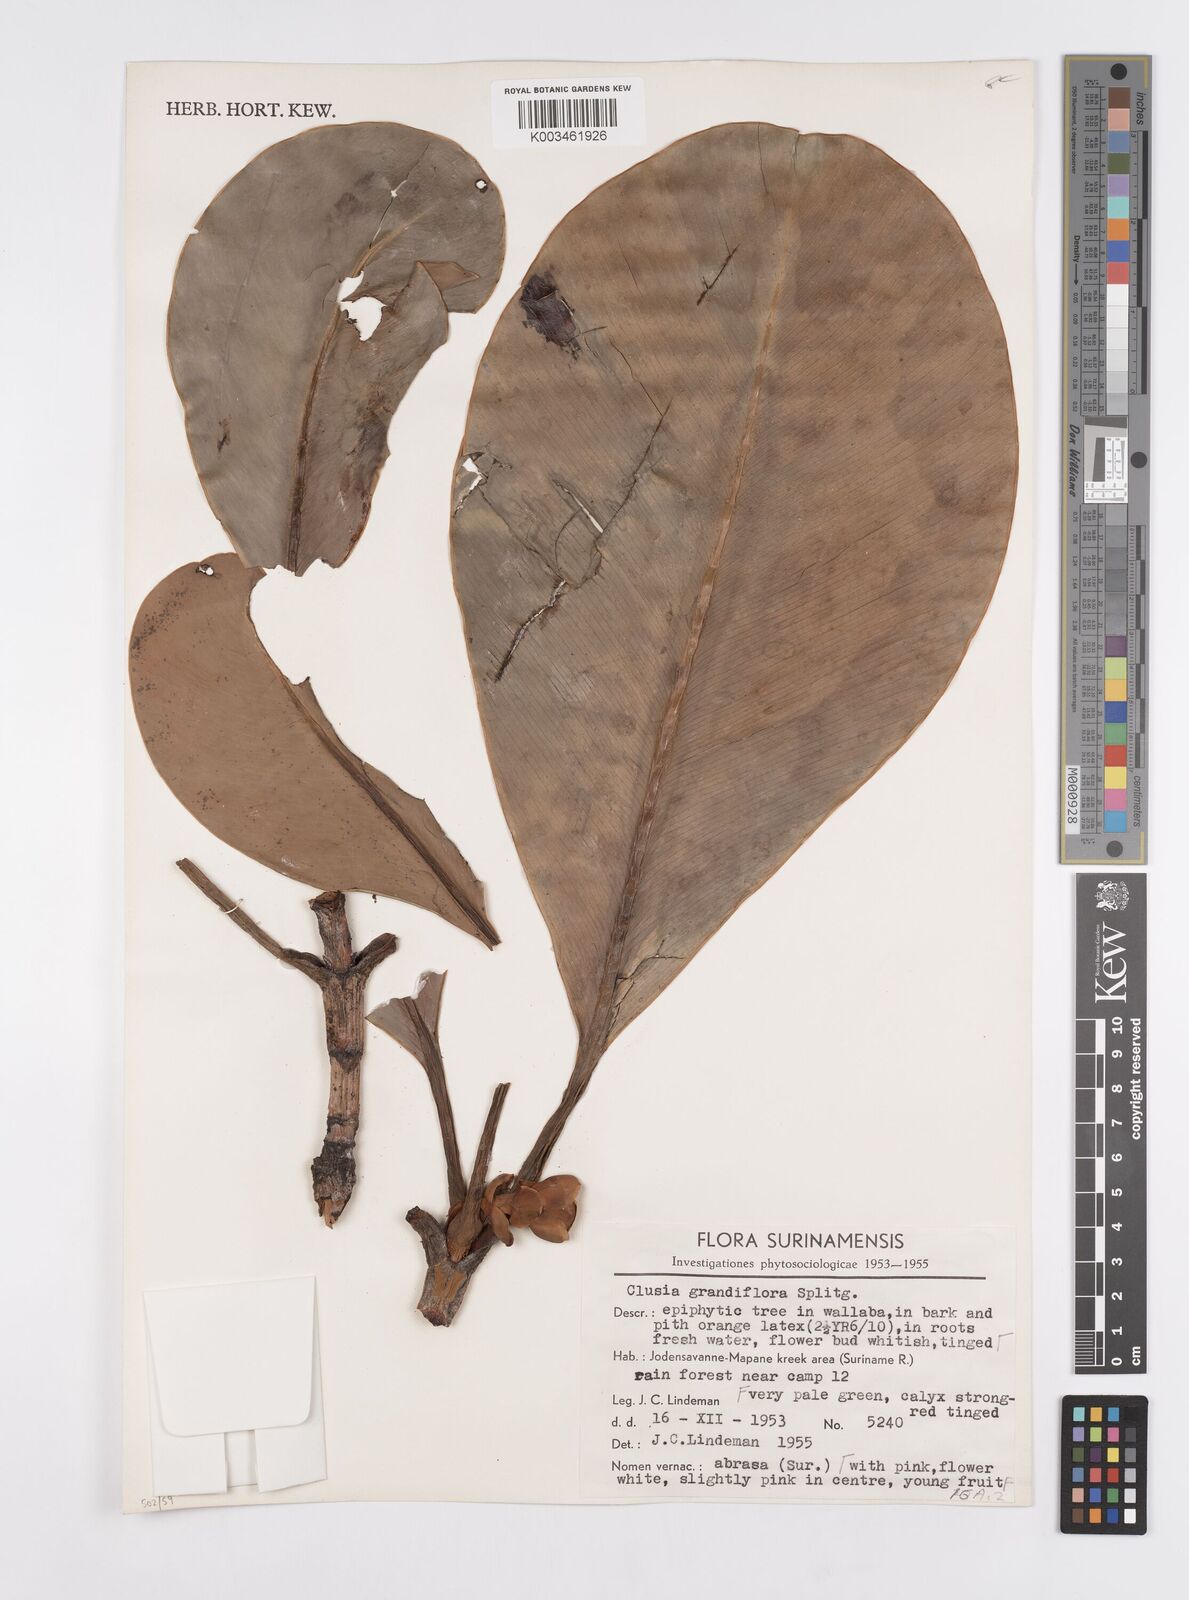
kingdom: Plantae
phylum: Tracheophyta
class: Magnoliopsida
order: Malpighiales
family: Clusiaceae
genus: Clusia
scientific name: Clusia grandiflora
